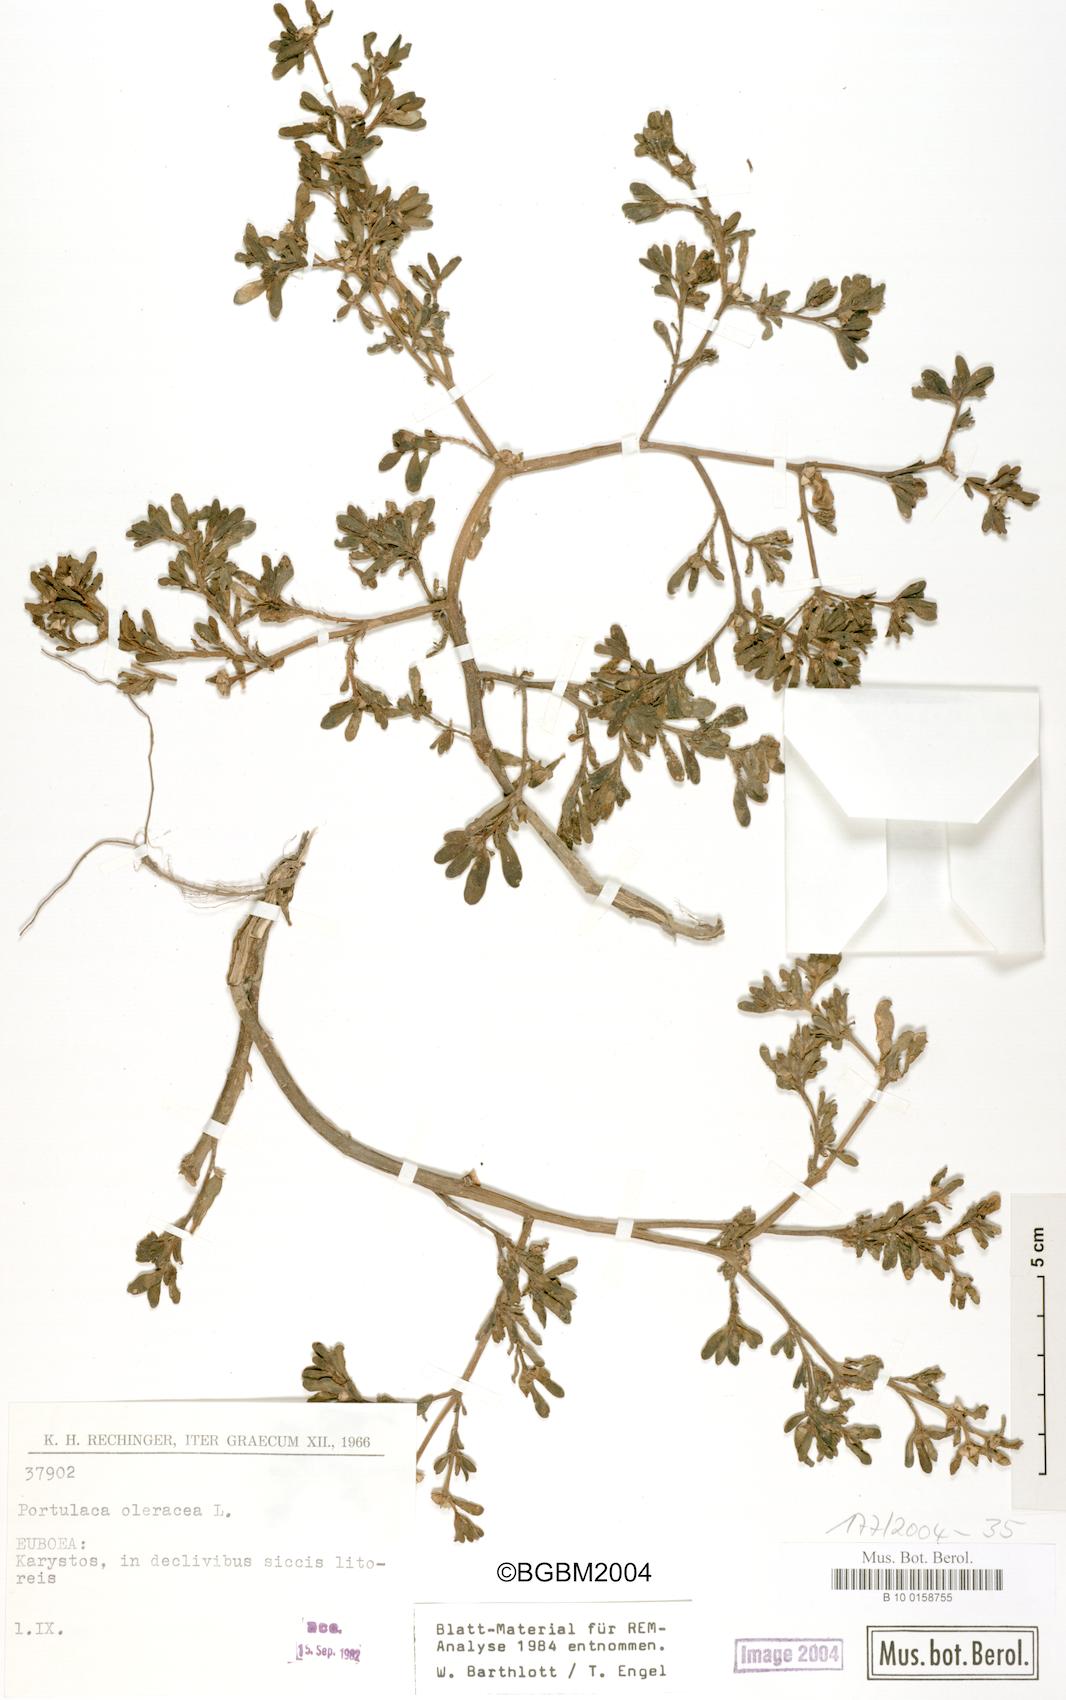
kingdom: Plantae
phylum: Tracheophyta
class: Magnoliopsida
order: Caryophyllales
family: Portulacaceae
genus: Portulaca
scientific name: Portulaca oleracea
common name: Common purslane
